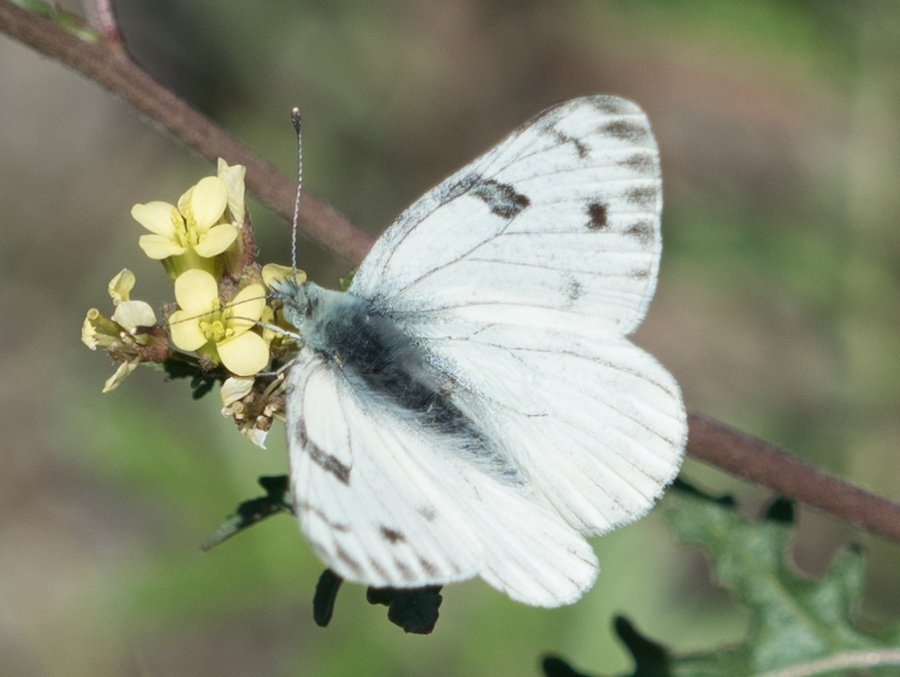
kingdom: Animalia
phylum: Arthropoda
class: Insecta
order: Lepidoptera
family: Pieridae
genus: Pontia
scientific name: Pontia occidentalis
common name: Western White
